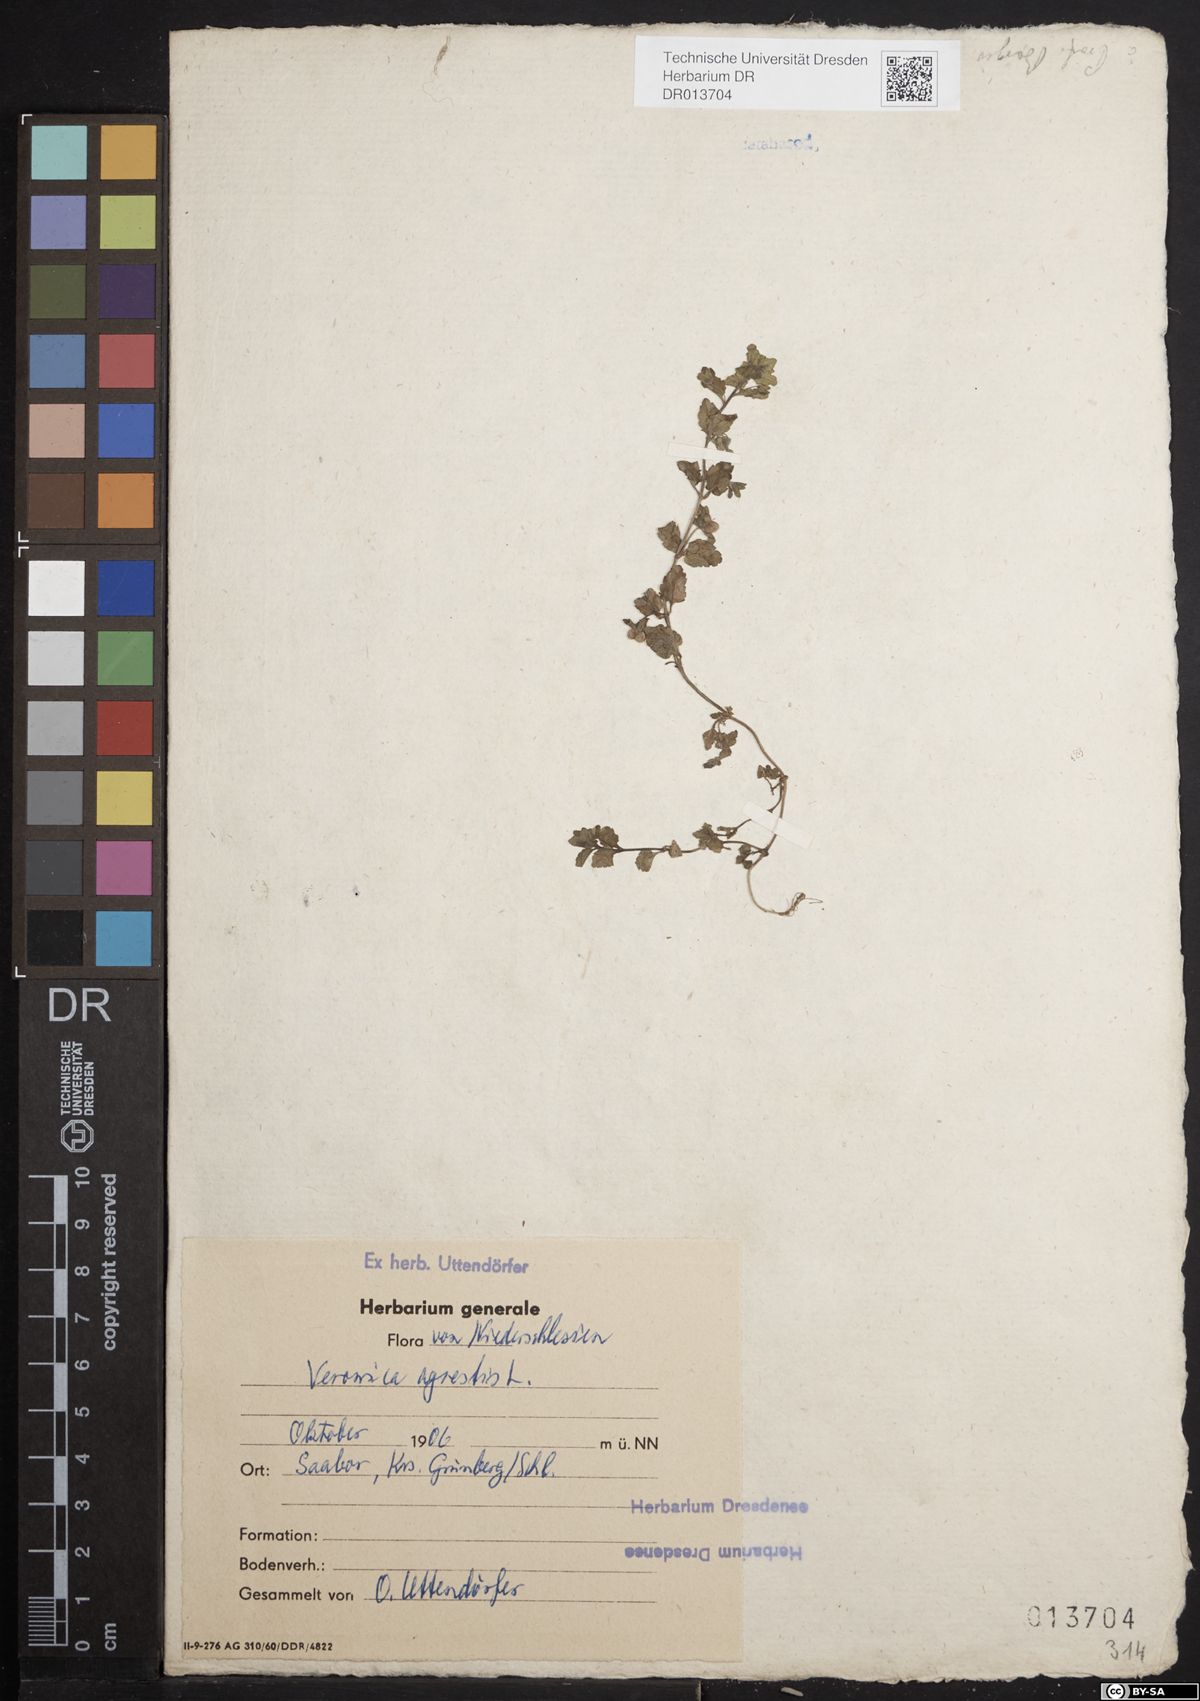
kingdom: Plantae
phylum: Tracheophyta
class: Magnoliopsida
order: Lamiales
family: Plantaginaceae
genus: Veronica
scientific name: Veronica agrestis
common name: Green field-speedwell
